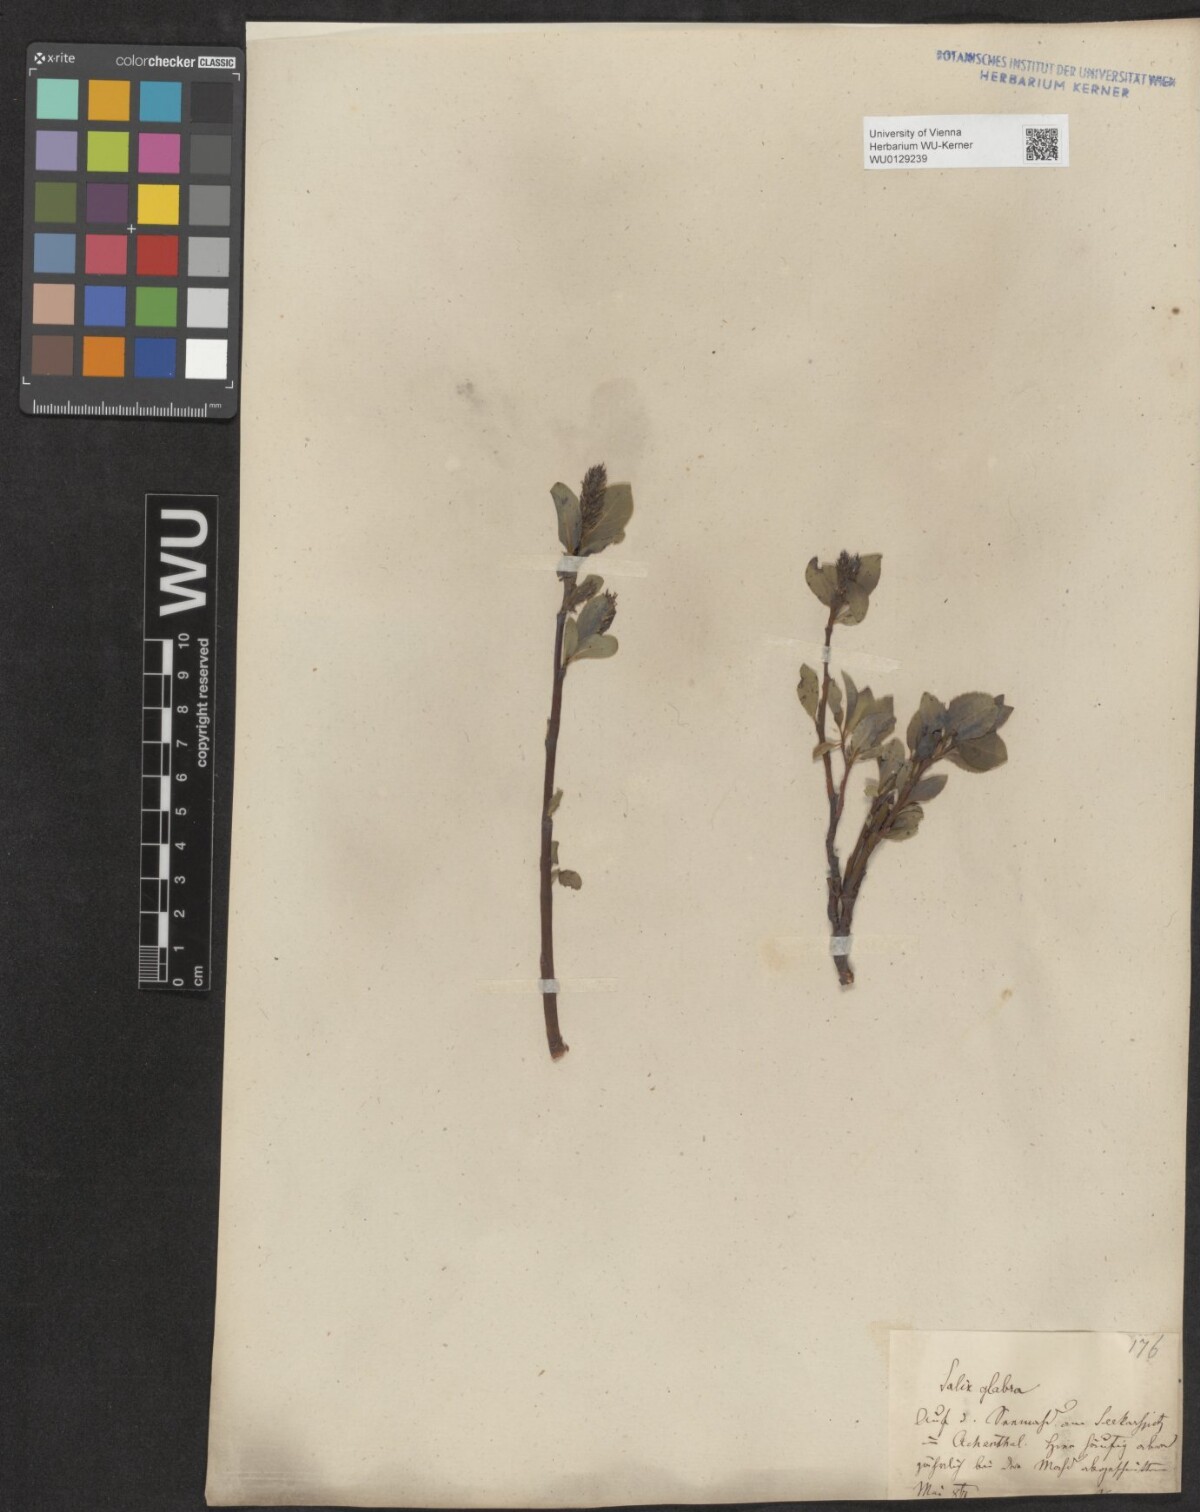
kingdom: Plantae
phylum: Tracheophyta
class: Magnoliopsida
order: Malpighiales
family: Salicaceae
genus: Salix
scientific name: Salix glabra
